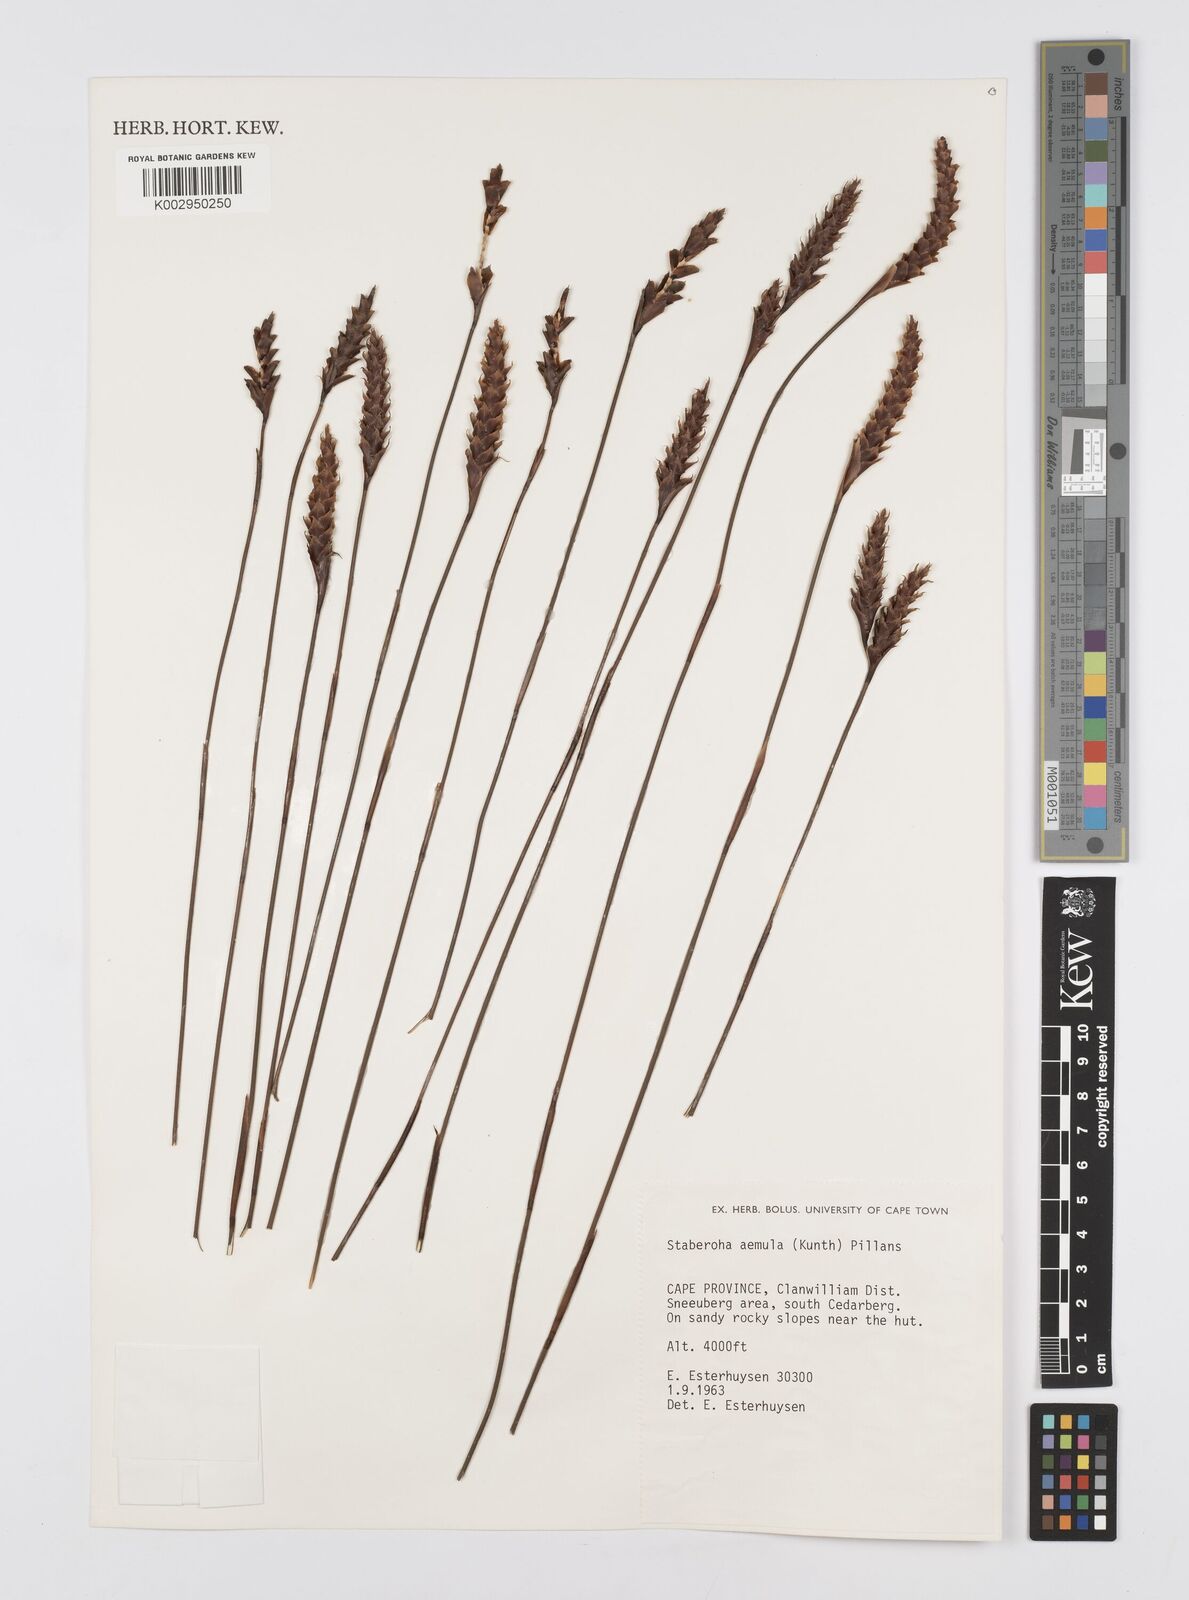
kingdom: Plantae
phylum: Tracheophyta
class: Liliopsida
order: Poales
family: Restionaceae
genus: Staberoha
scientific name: Staberoha aemula
